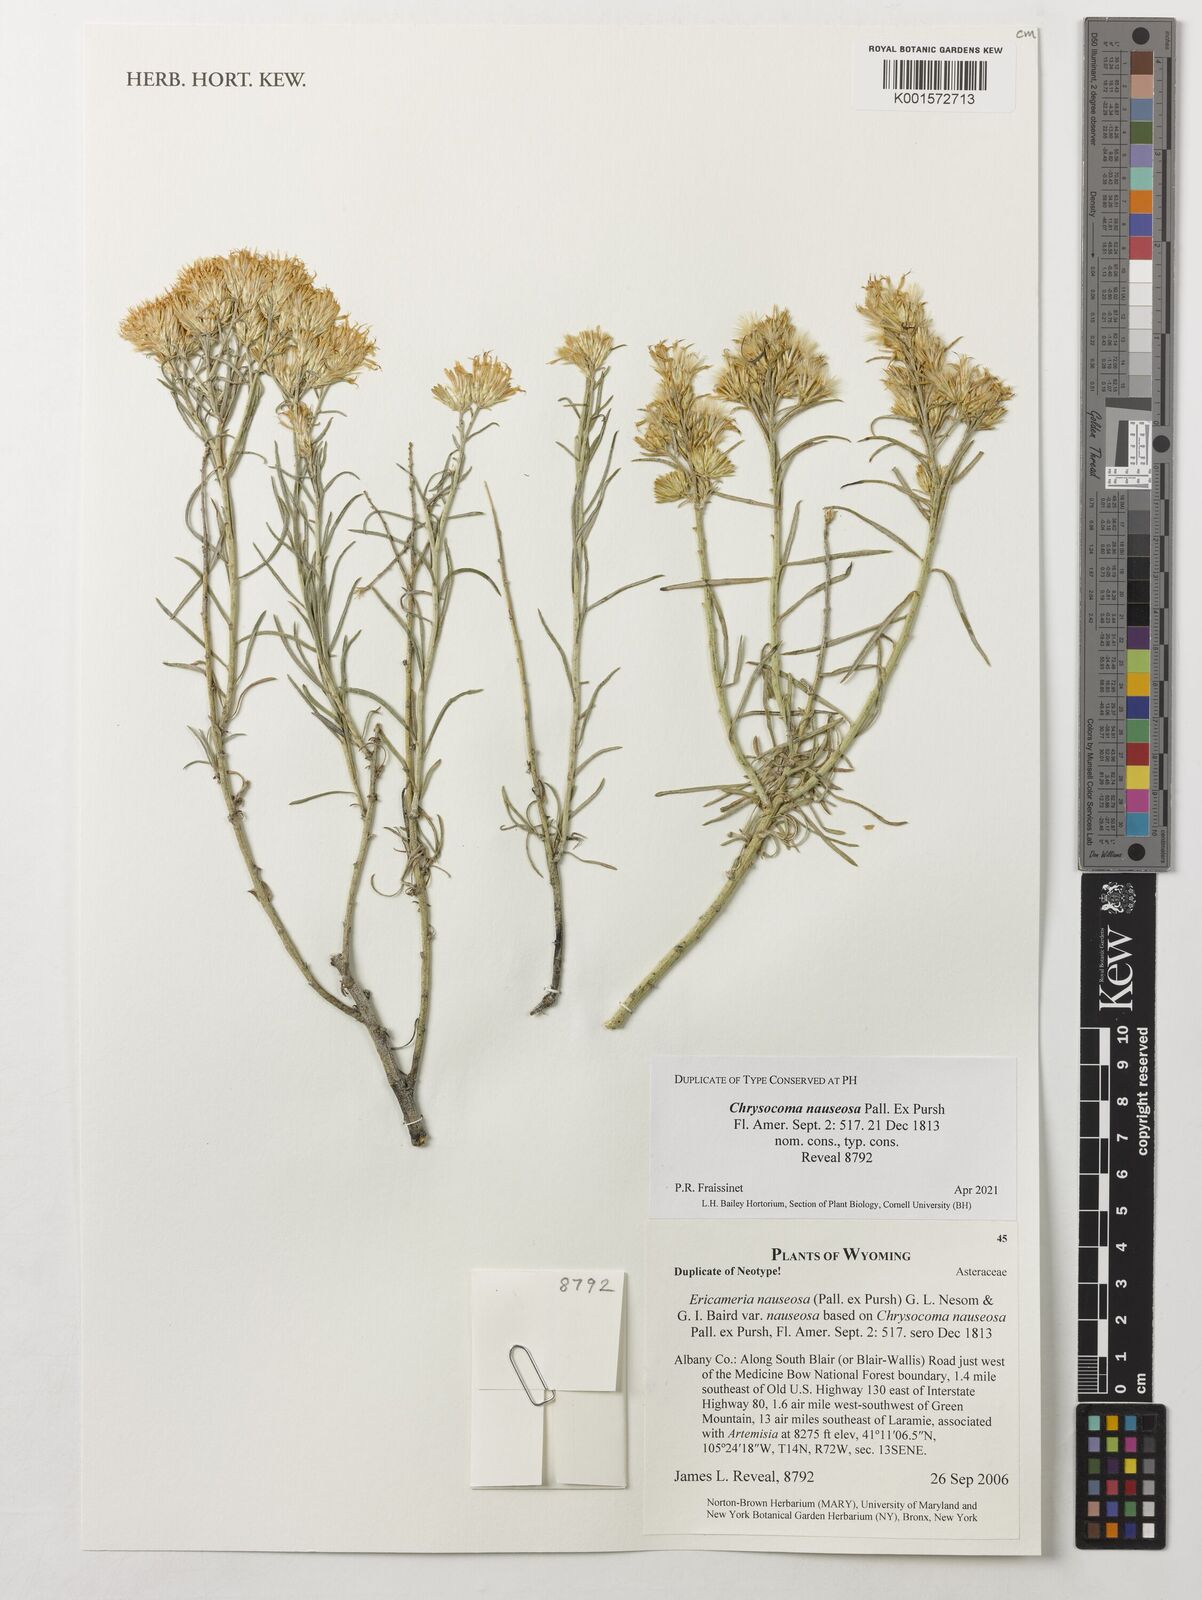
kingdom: Plantae
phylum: Tracheophyta
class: Magnoliopsida
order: Asterales
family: Asteraceae
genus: Ericameria
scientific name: Ericameria nauseosa
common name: Rubber rabbitbrush
